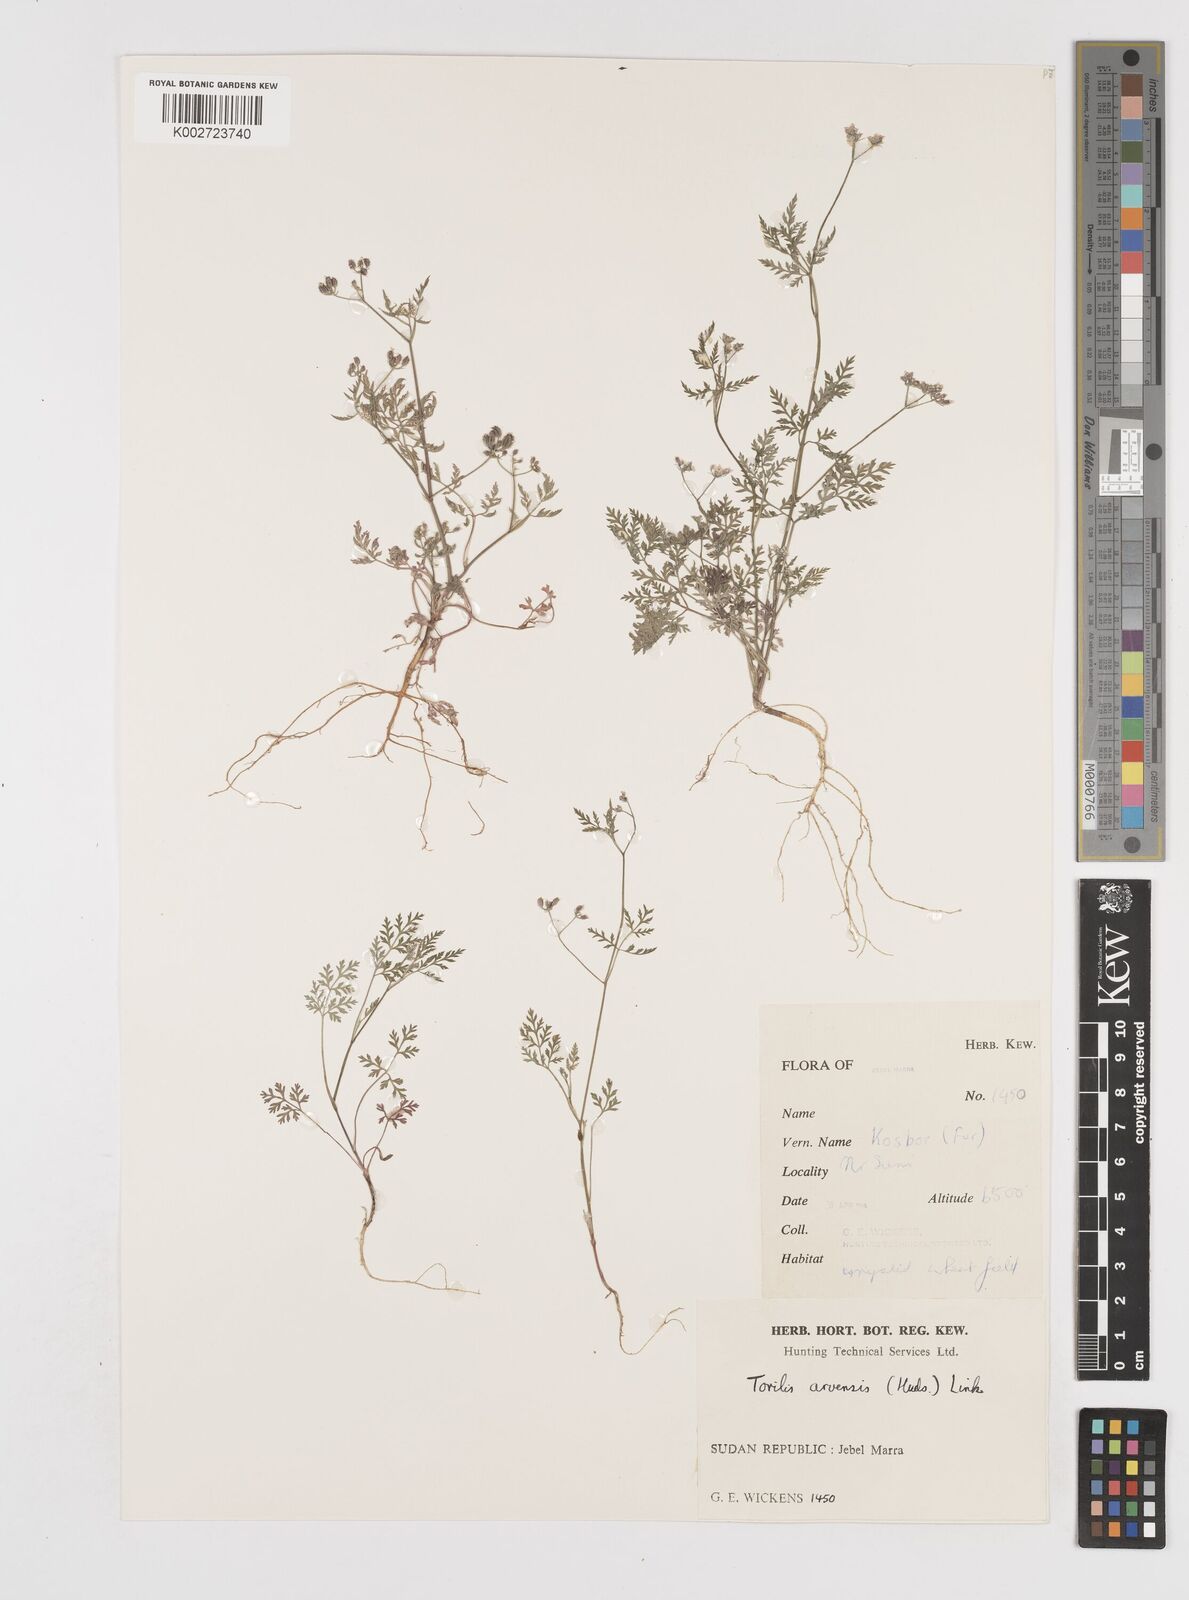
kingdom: Plantae
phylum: Tracheophyta
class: Magnoliopsida
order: Apiales
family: Apiaceae
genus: Torilis
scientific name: Torilis arvensis
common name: Spreading hedge-parsley
